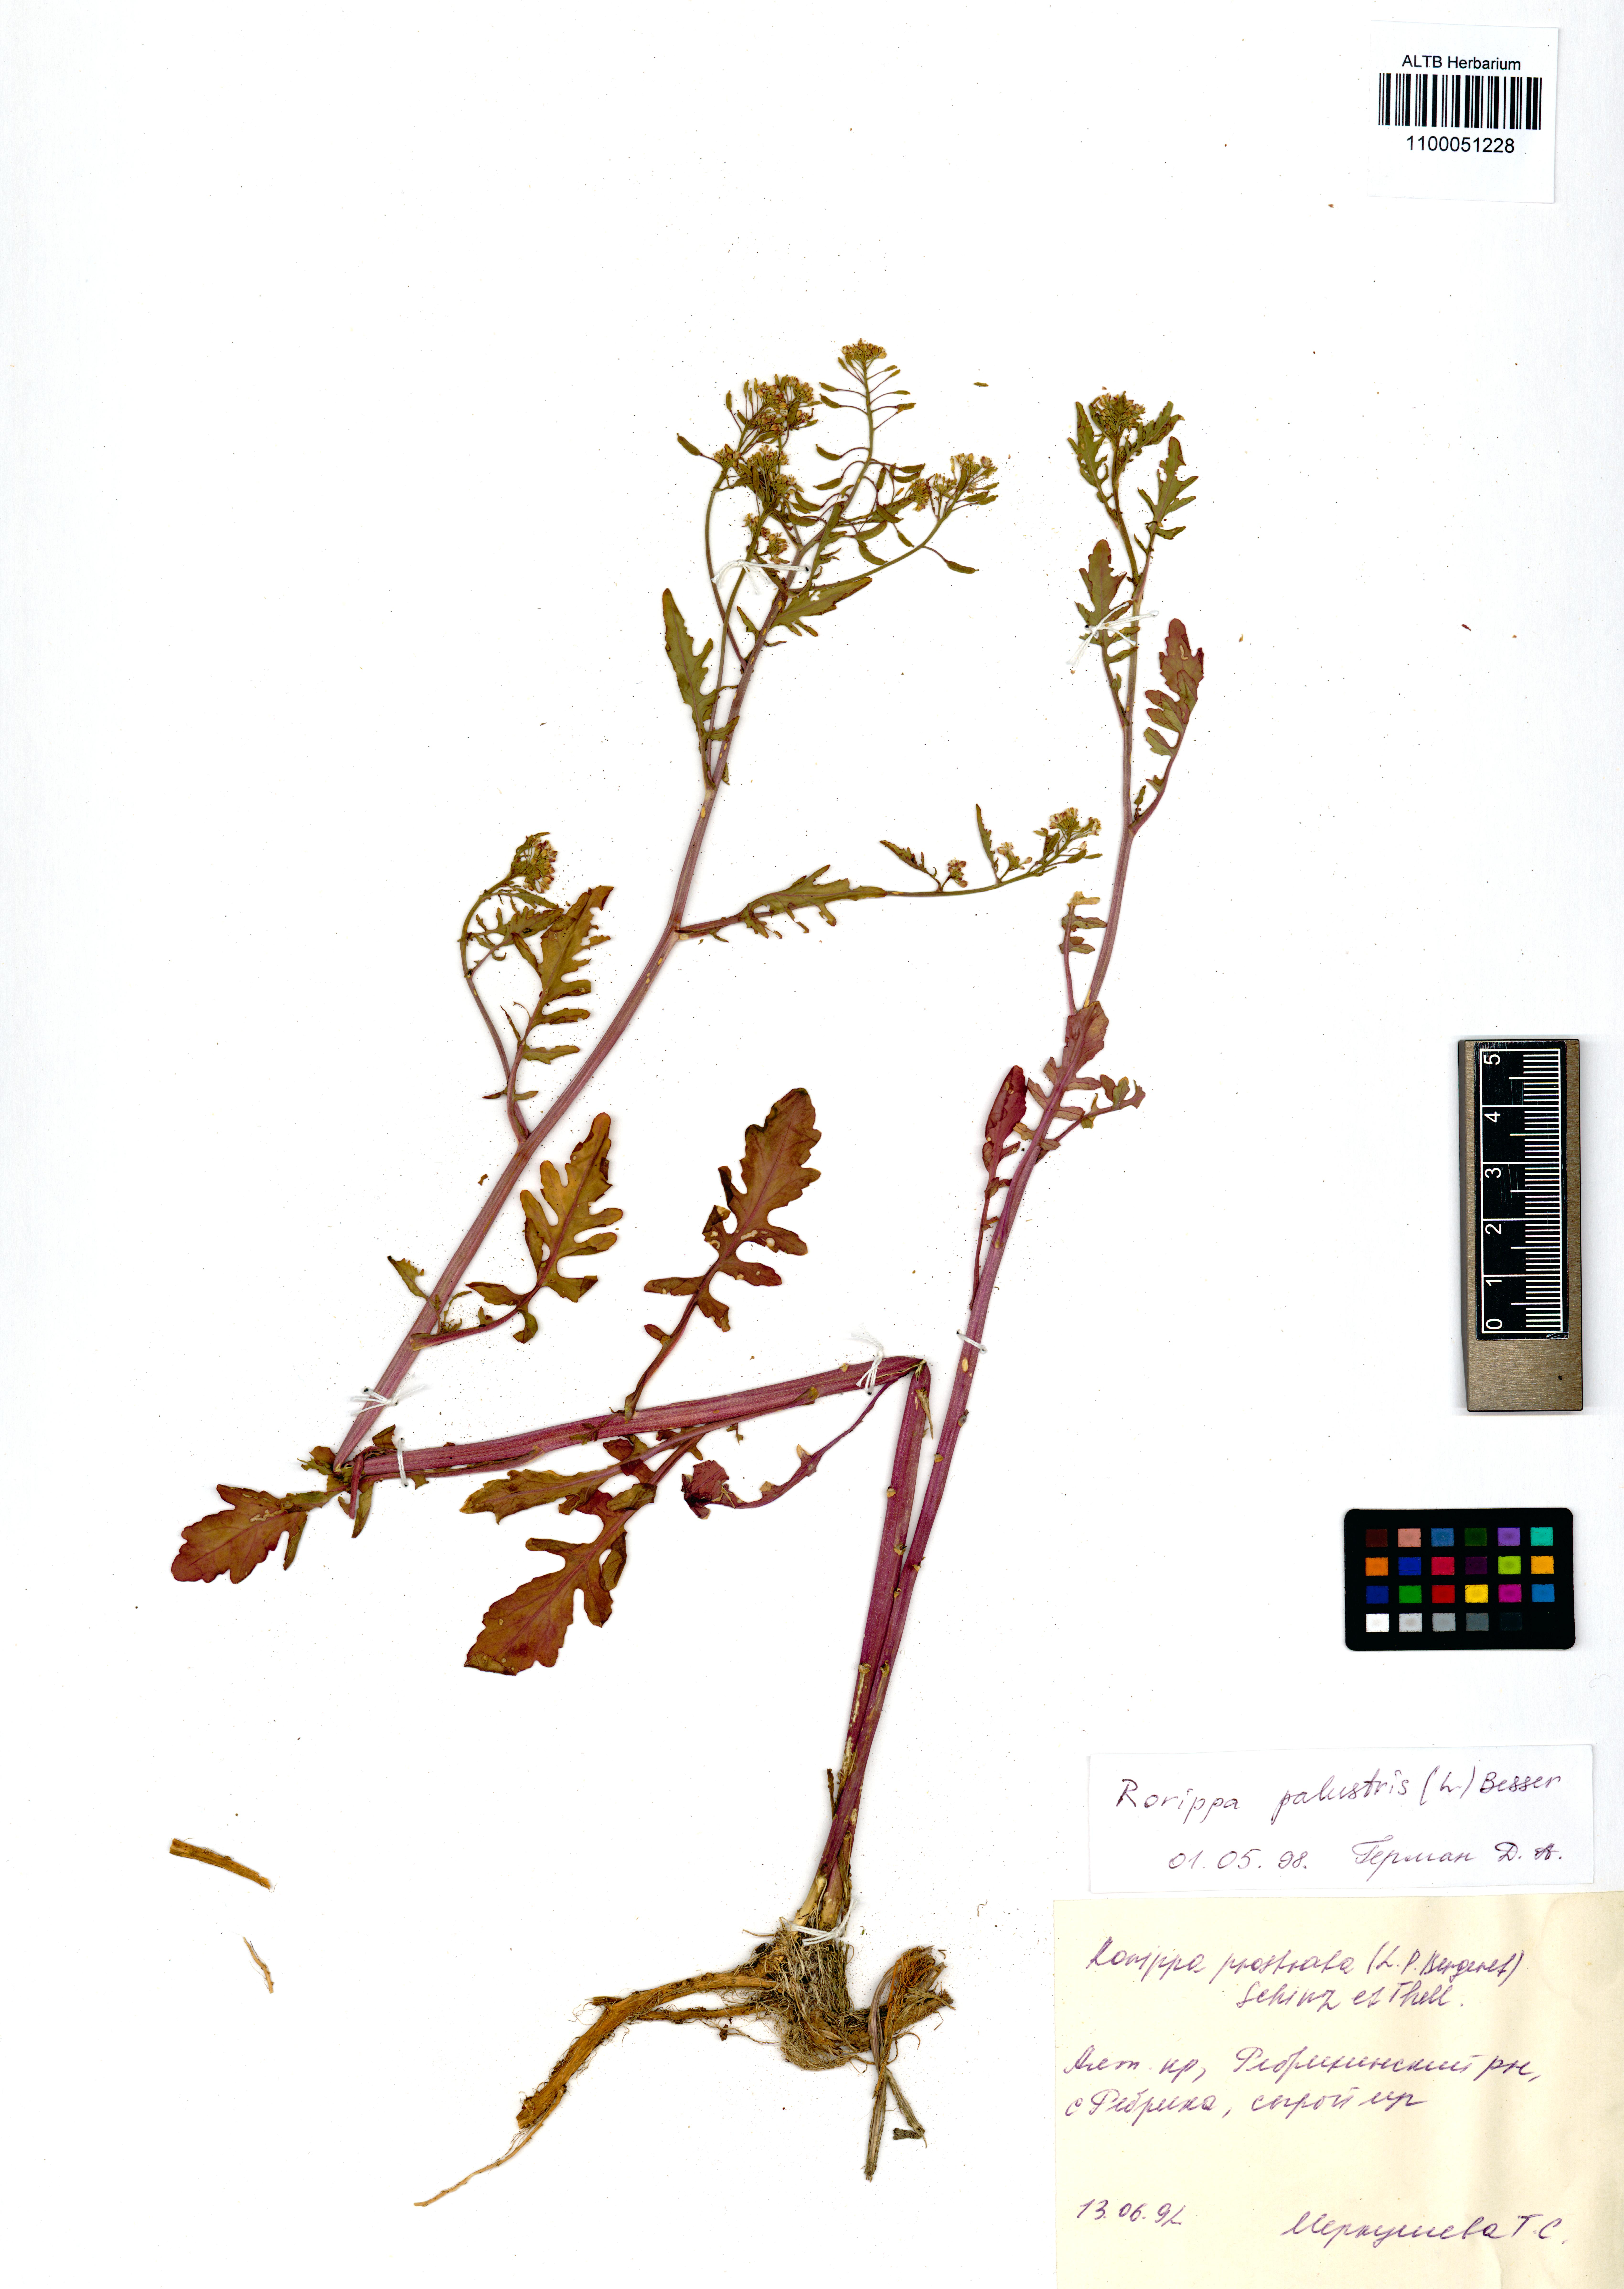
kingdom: Plantae
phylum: Tracheophyta
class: Magnoliopsida
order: Brassicales
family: Brassicaceae
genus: Rorippa
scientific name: Rorippa palustris
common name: Marsh yellow-cress
